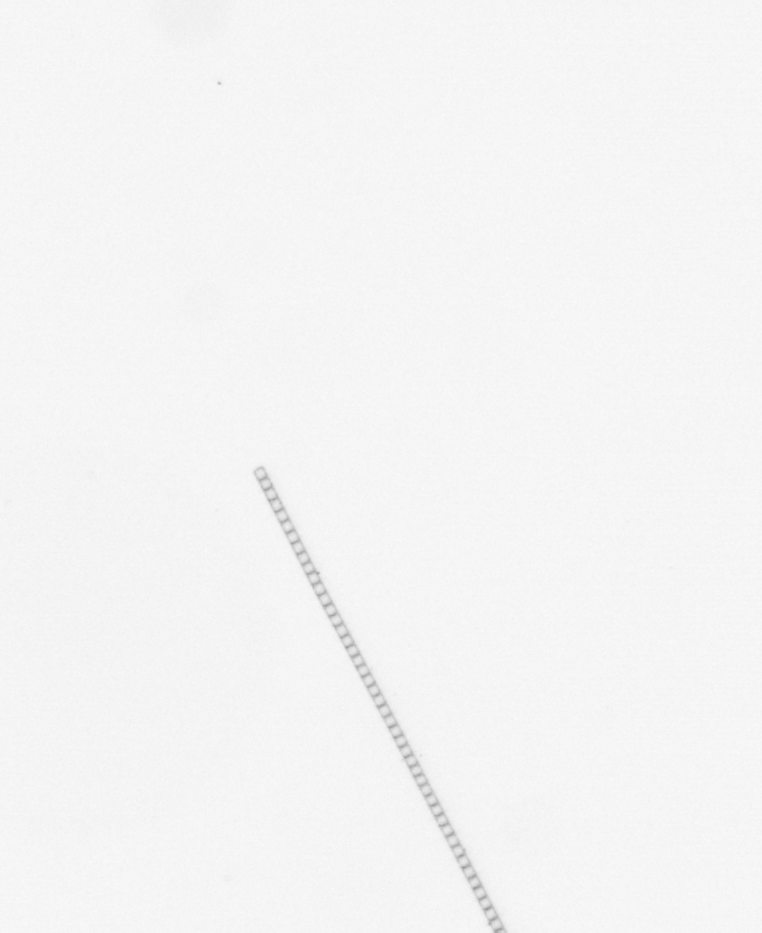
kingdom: Chromista
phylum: Ochrophyta
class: Bacillariophyceae
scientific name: Bacillariophyceae
